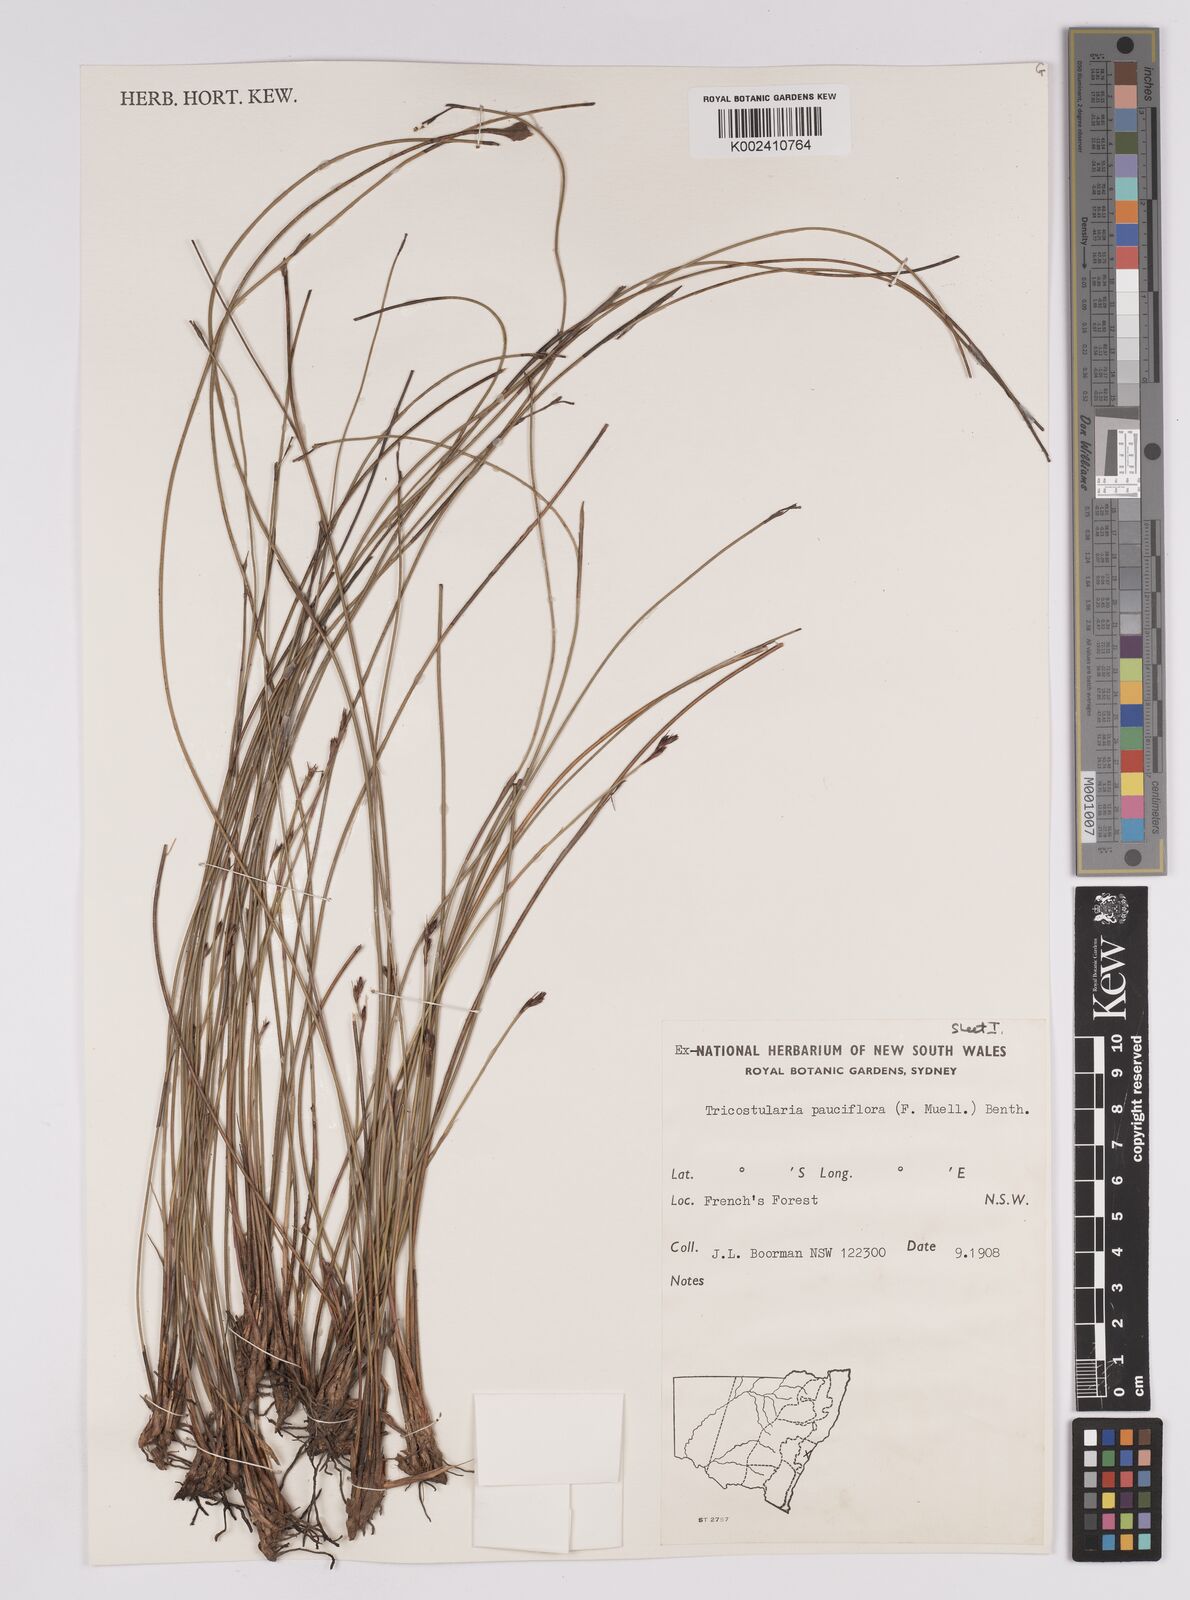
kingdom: Plantae
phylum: Tracheophyta
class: Liliopsida
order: Poales
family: Cyperaceae
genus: Tricostularia
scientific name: Tricostularia pauciflora
